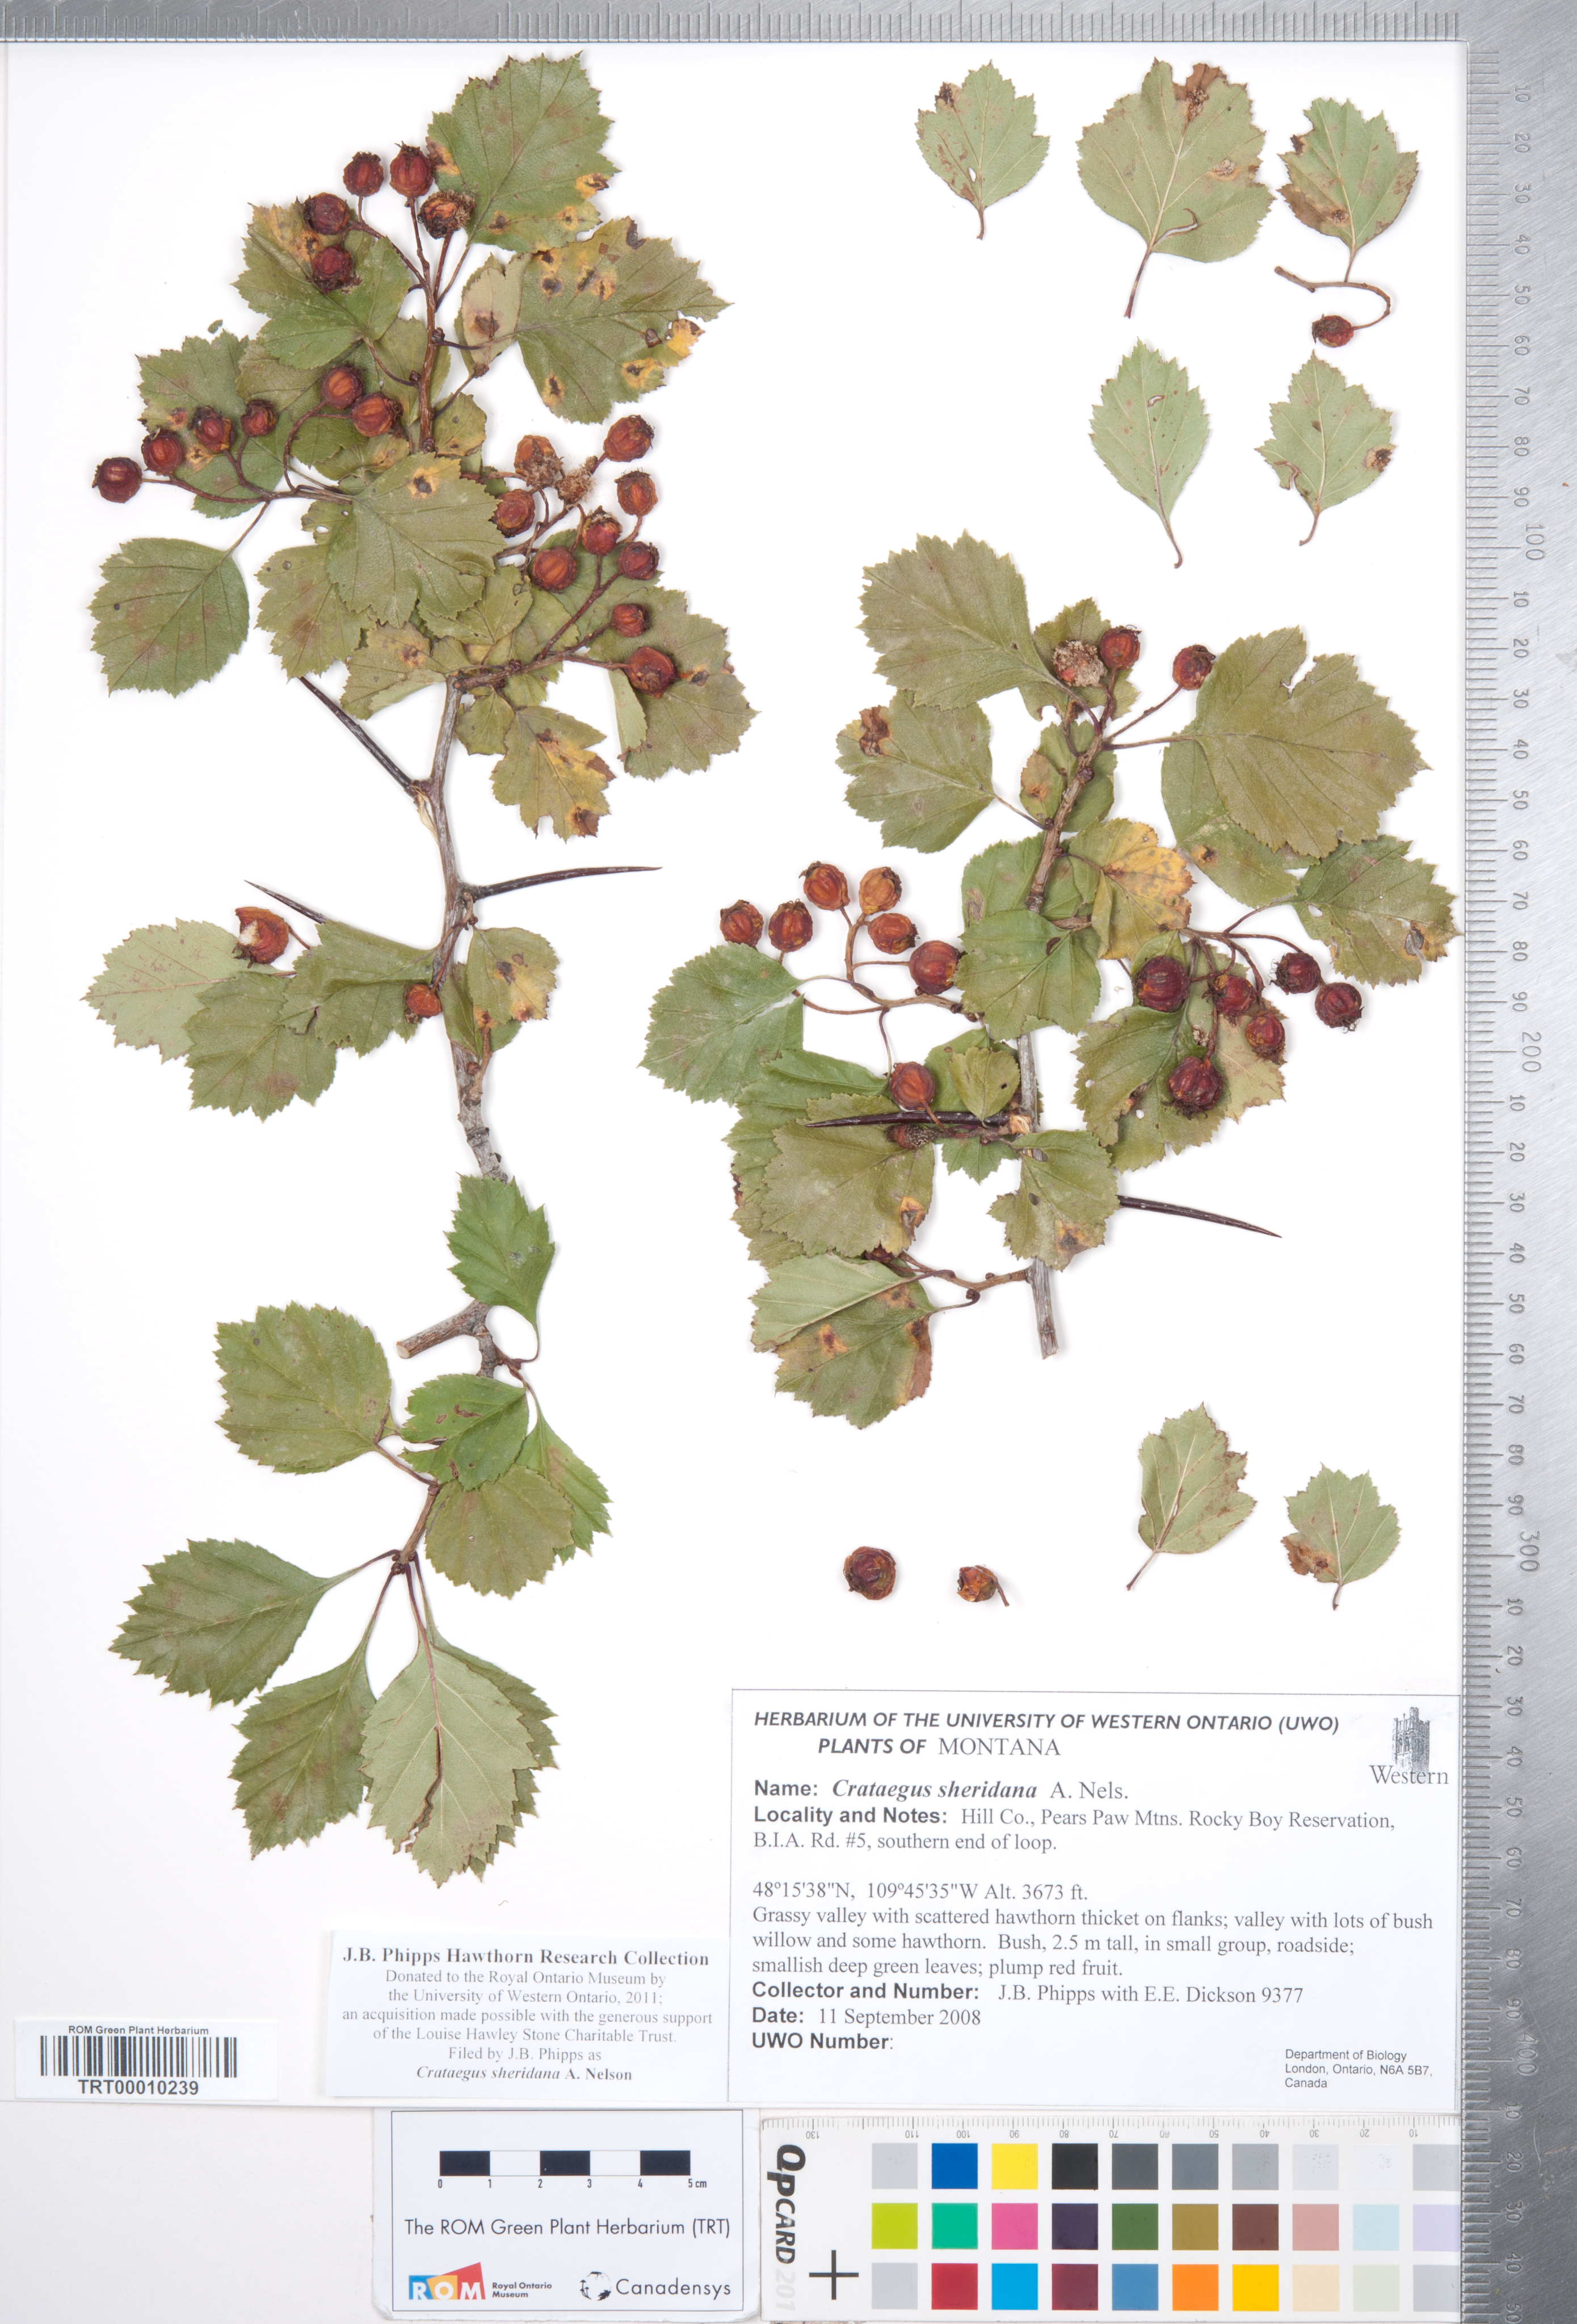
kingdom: Plantae
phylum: Tracheophyta
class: Magnoliopsida
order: Rosales
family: Rosaceae
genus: Crataegus
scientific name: Crataegus chrysocarpa
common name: Fire-berry hawthorn
